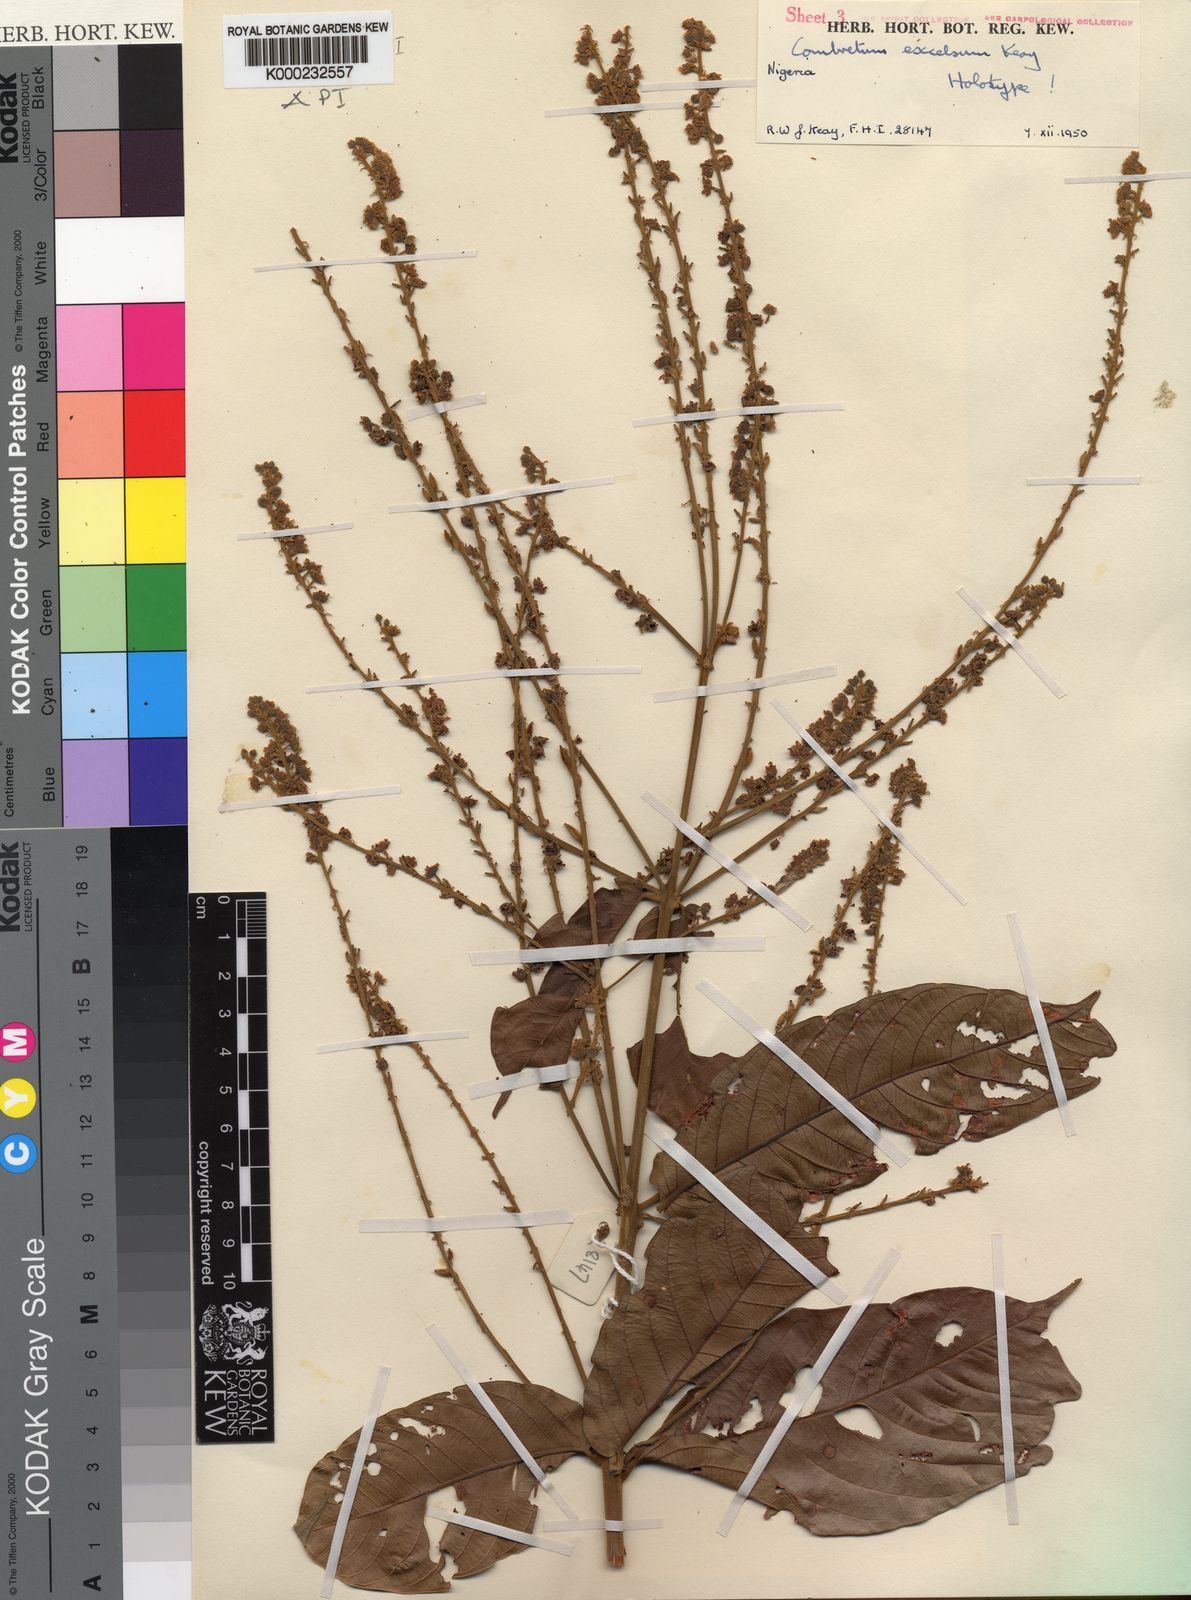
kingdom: Plantae
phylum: Tracheophyta
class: Magnoliopsida
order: Myrtales
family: Combretaceae
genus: Combretum
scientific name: Combretum pecoense
